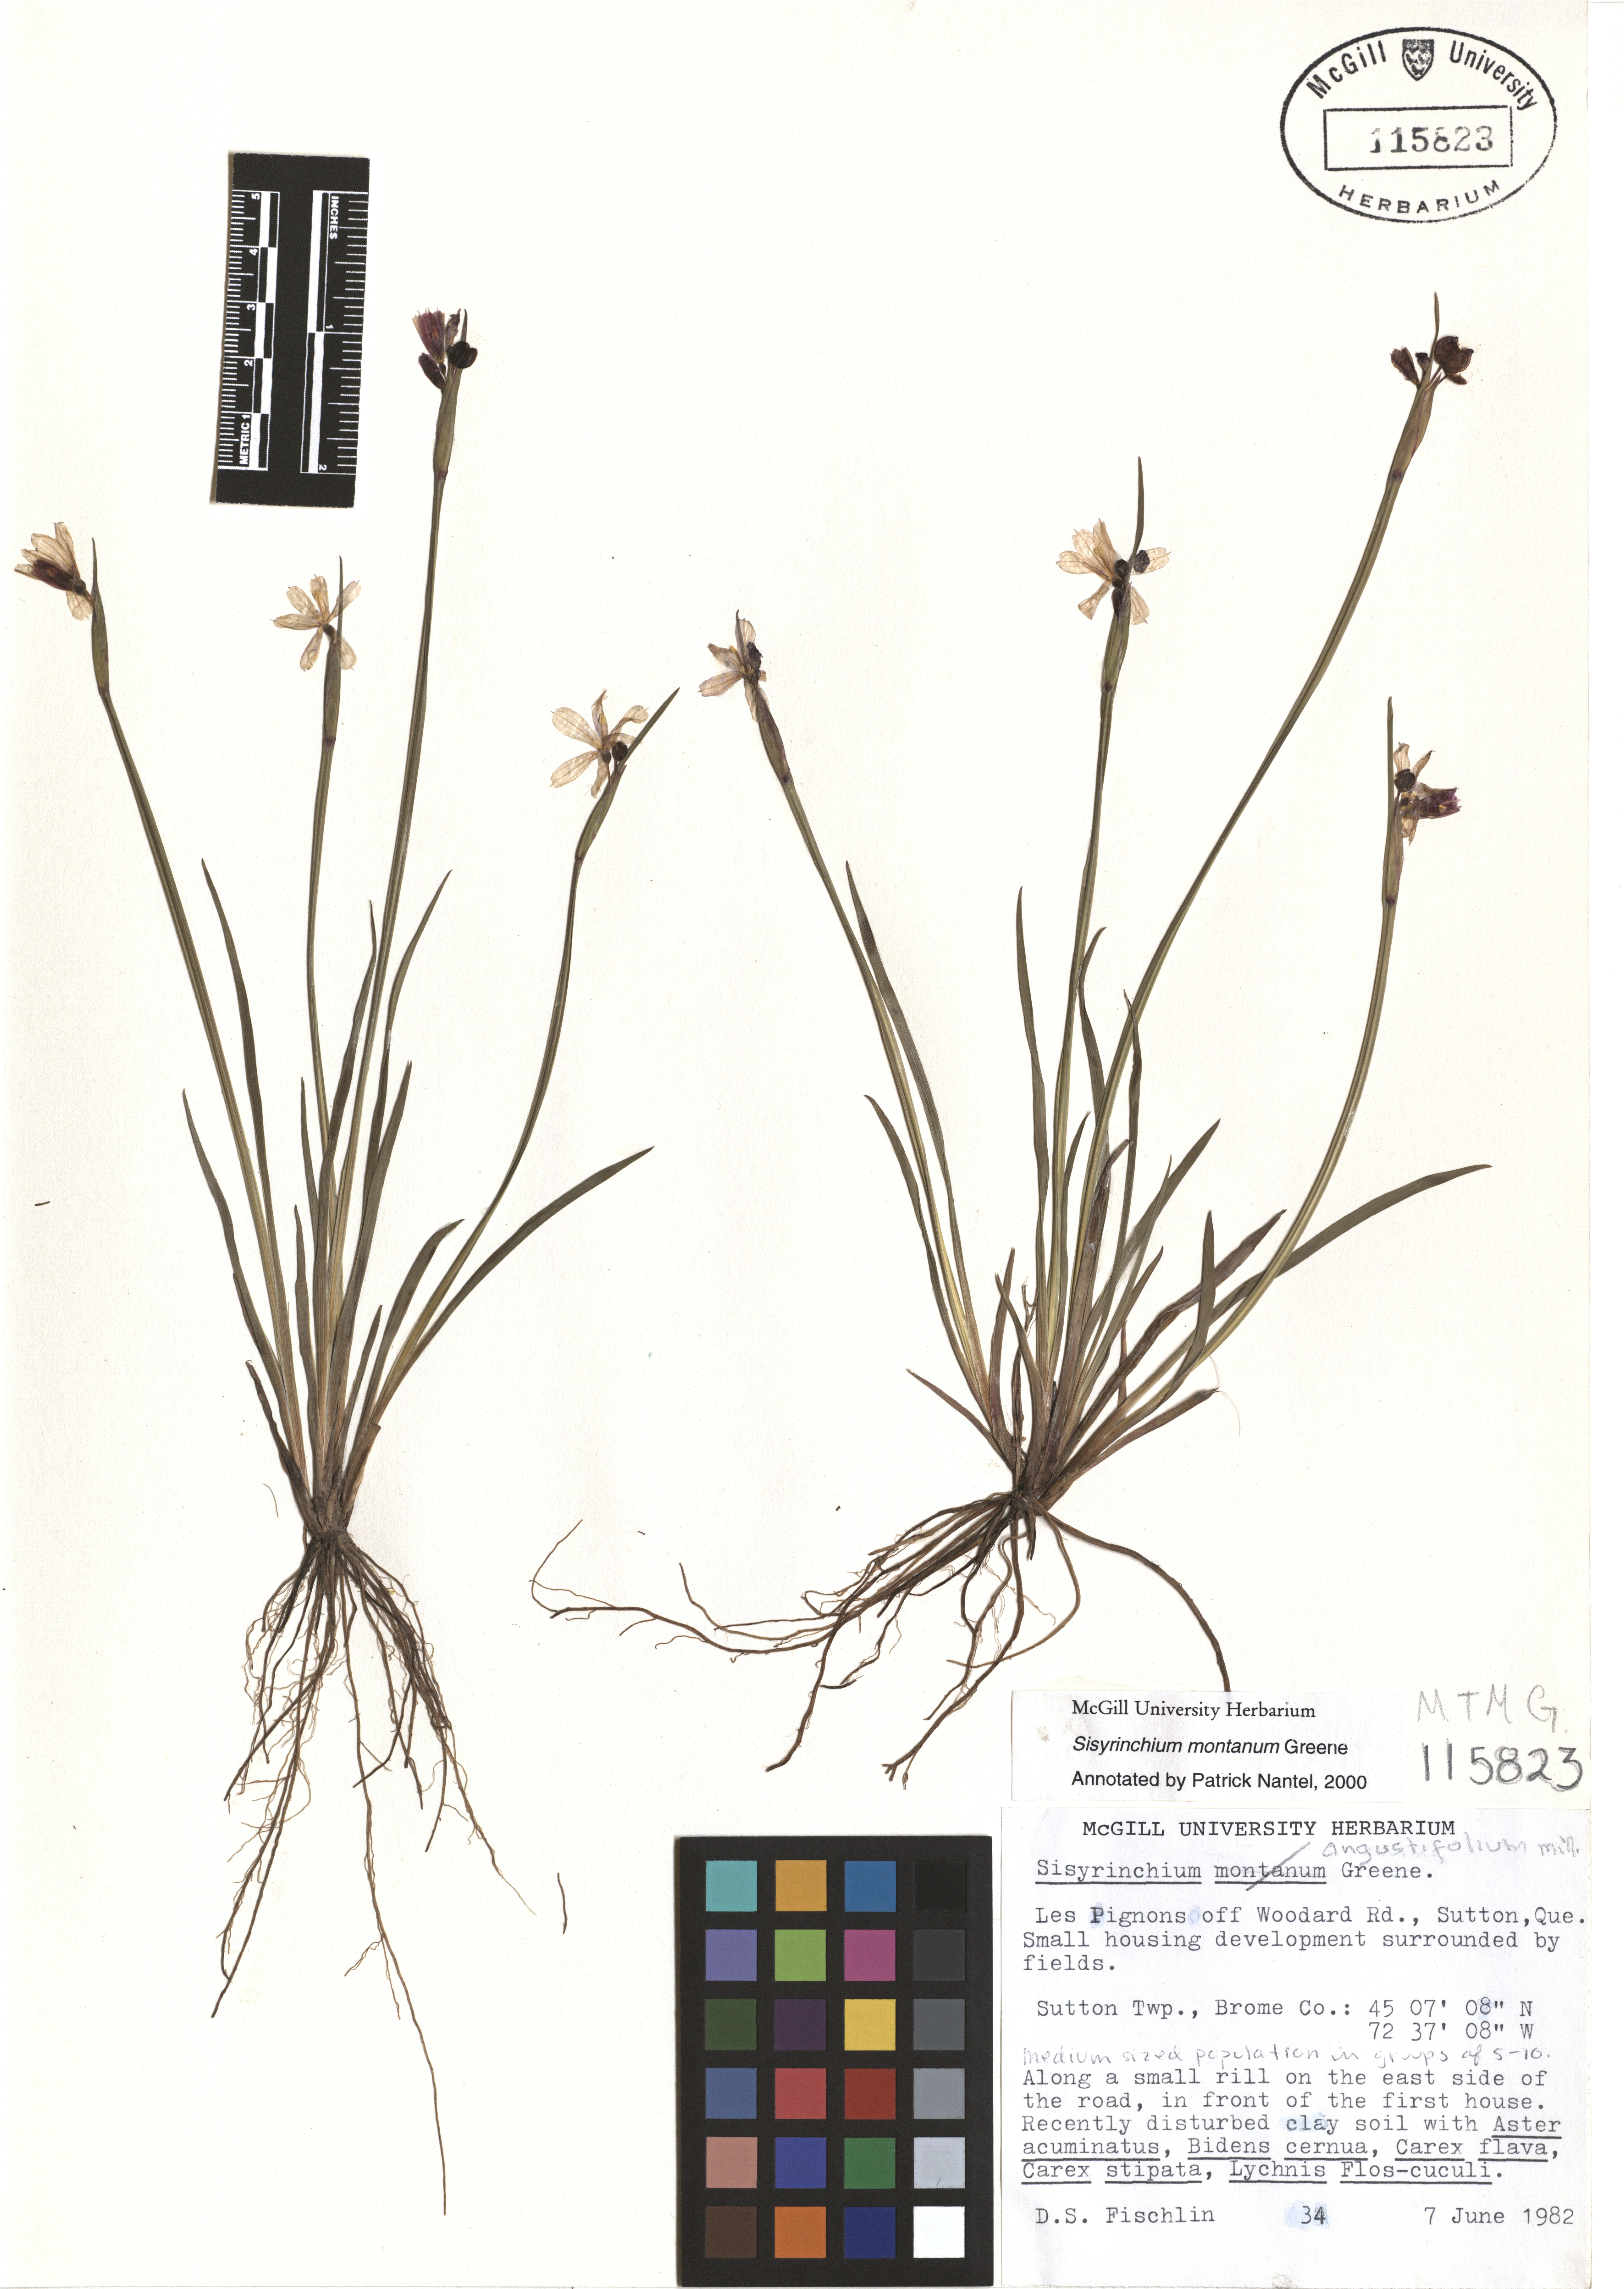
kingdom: Plantae
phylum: Tracheophyta
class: Liliopsida
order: Asparagales
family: Iridaceae
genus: Sisyrinchium
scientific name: Sisyrinchium montanum
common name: American blue-eyed-grass
